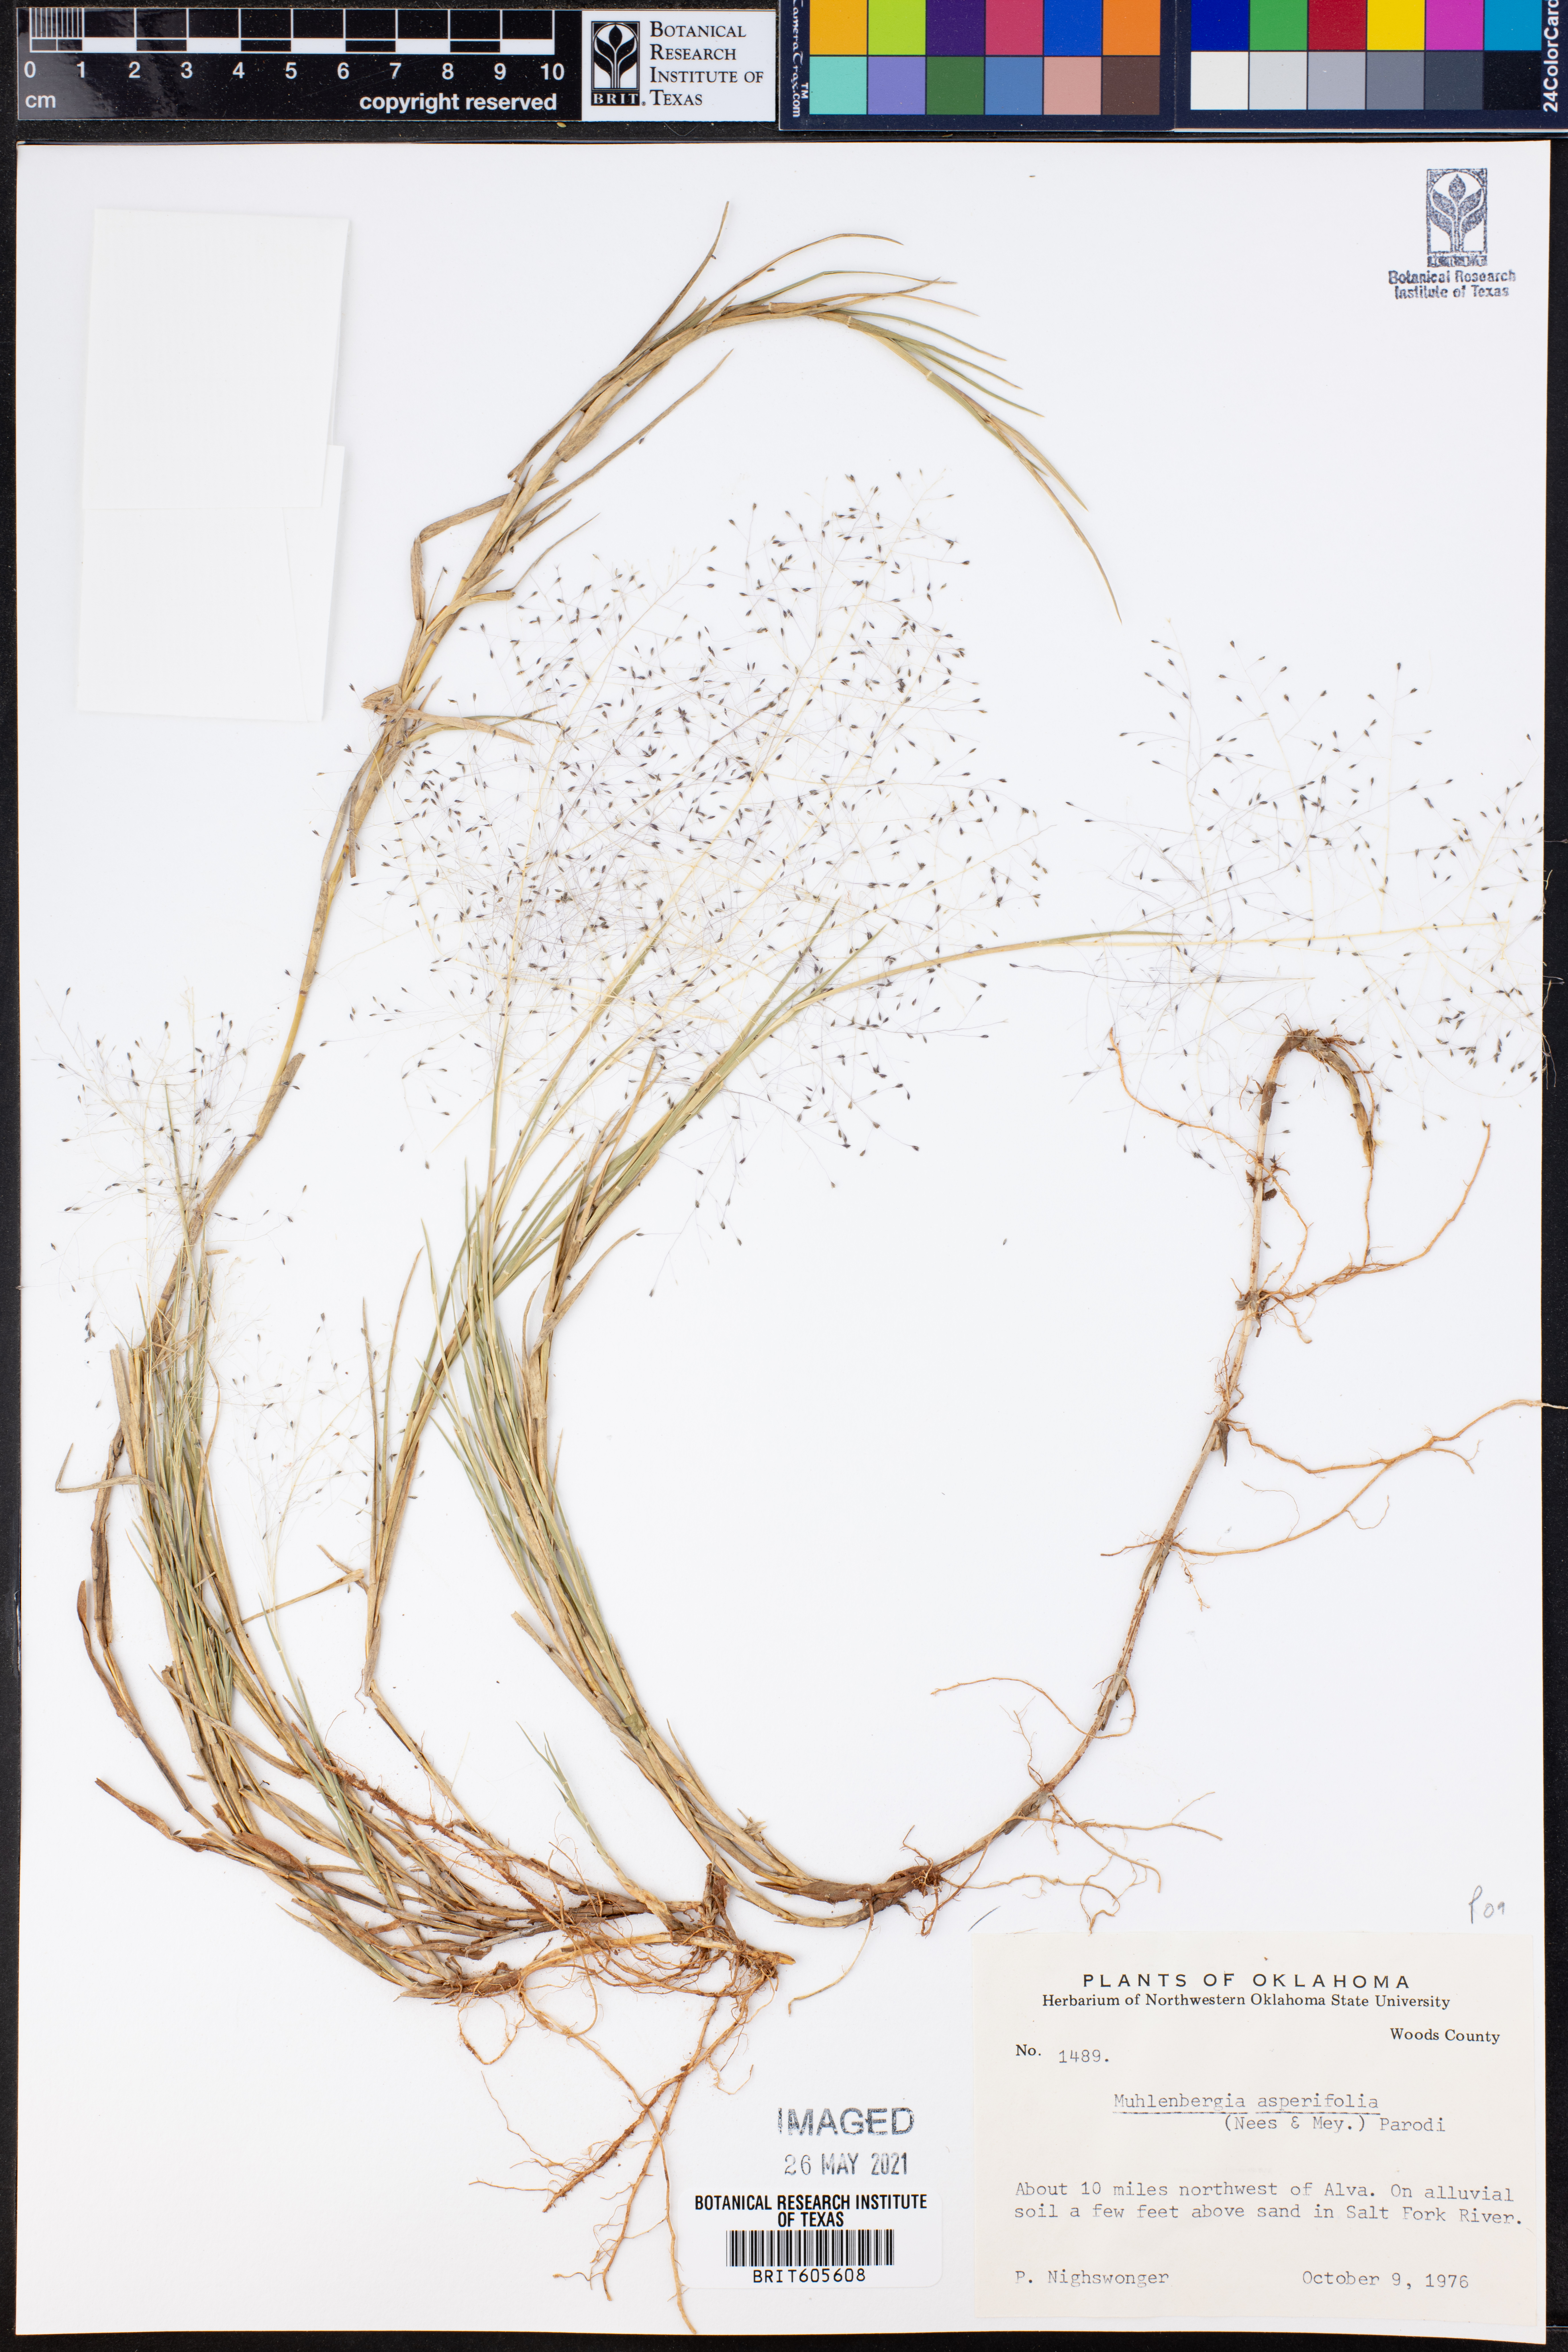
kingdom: Plantae
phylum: Tracheophyta
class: Liliopsida
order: Poales
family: Poaceae
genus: Muhlenbergia
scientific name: Muhlenbergia asperifolia
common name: Alkali muhly
